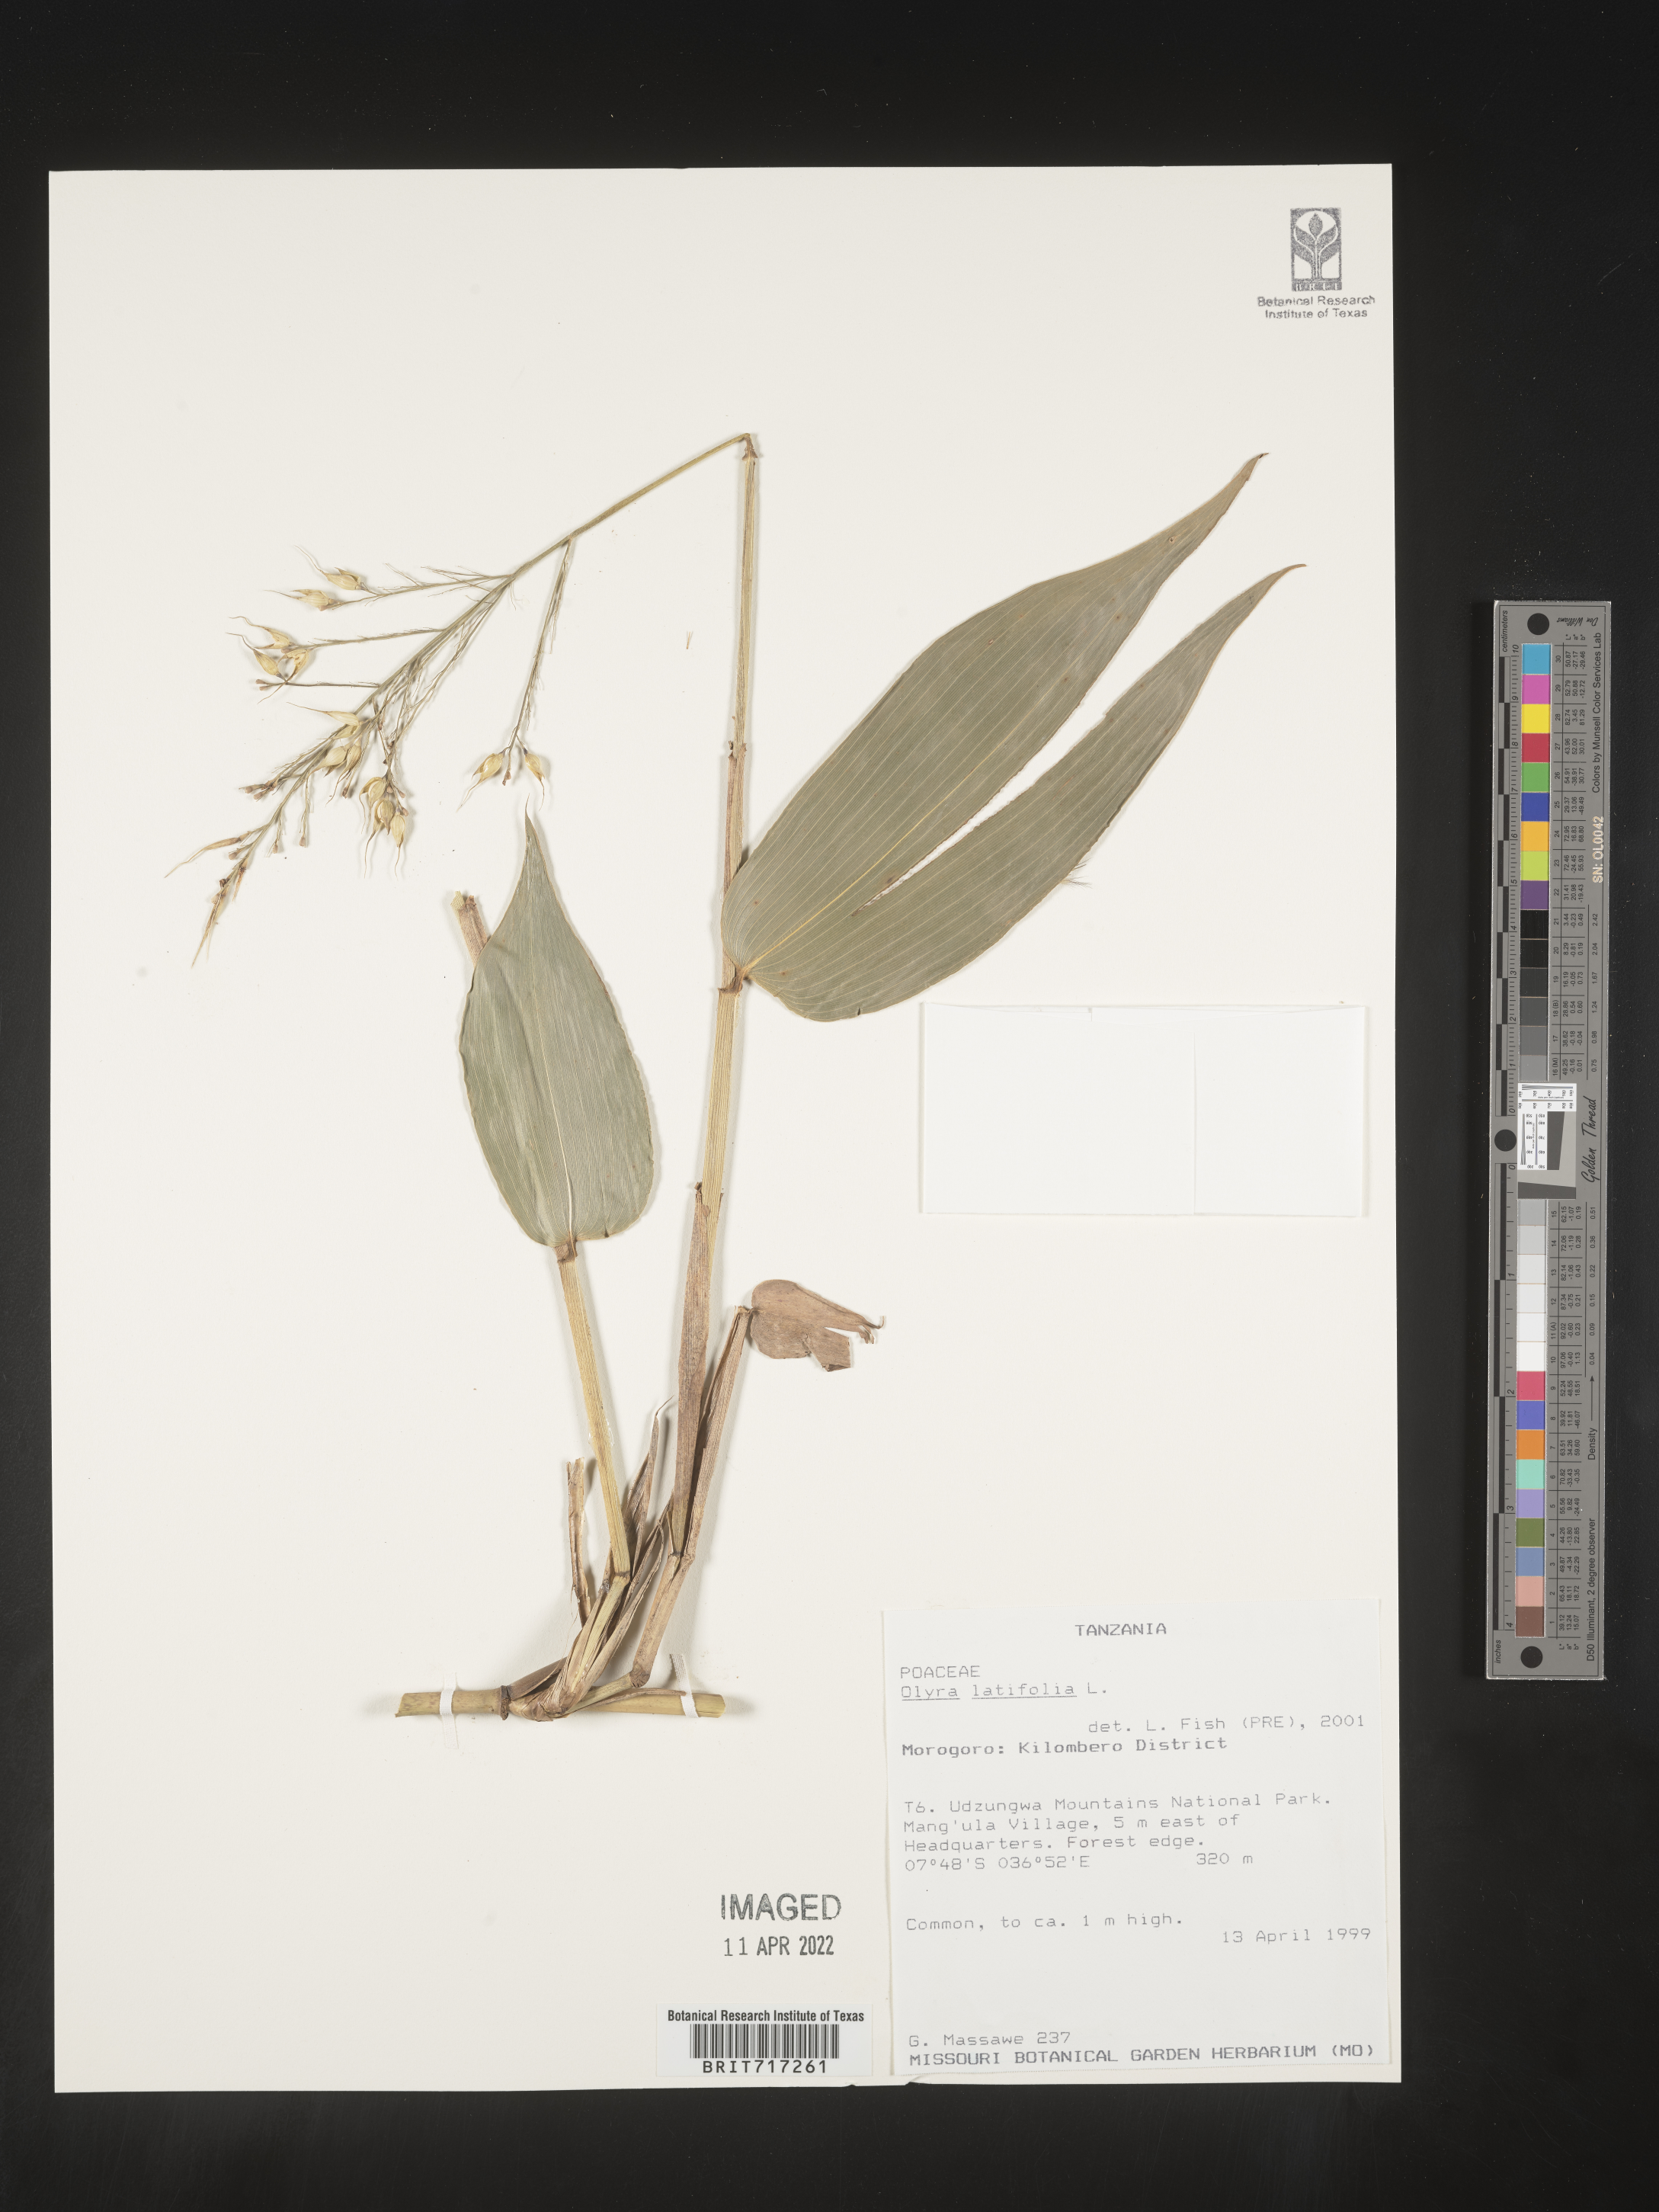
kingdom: Plantae
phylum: Tracheophyta
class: Liliopsida
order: Poales
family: Poaceae
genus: Olyra
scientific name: Olyra
